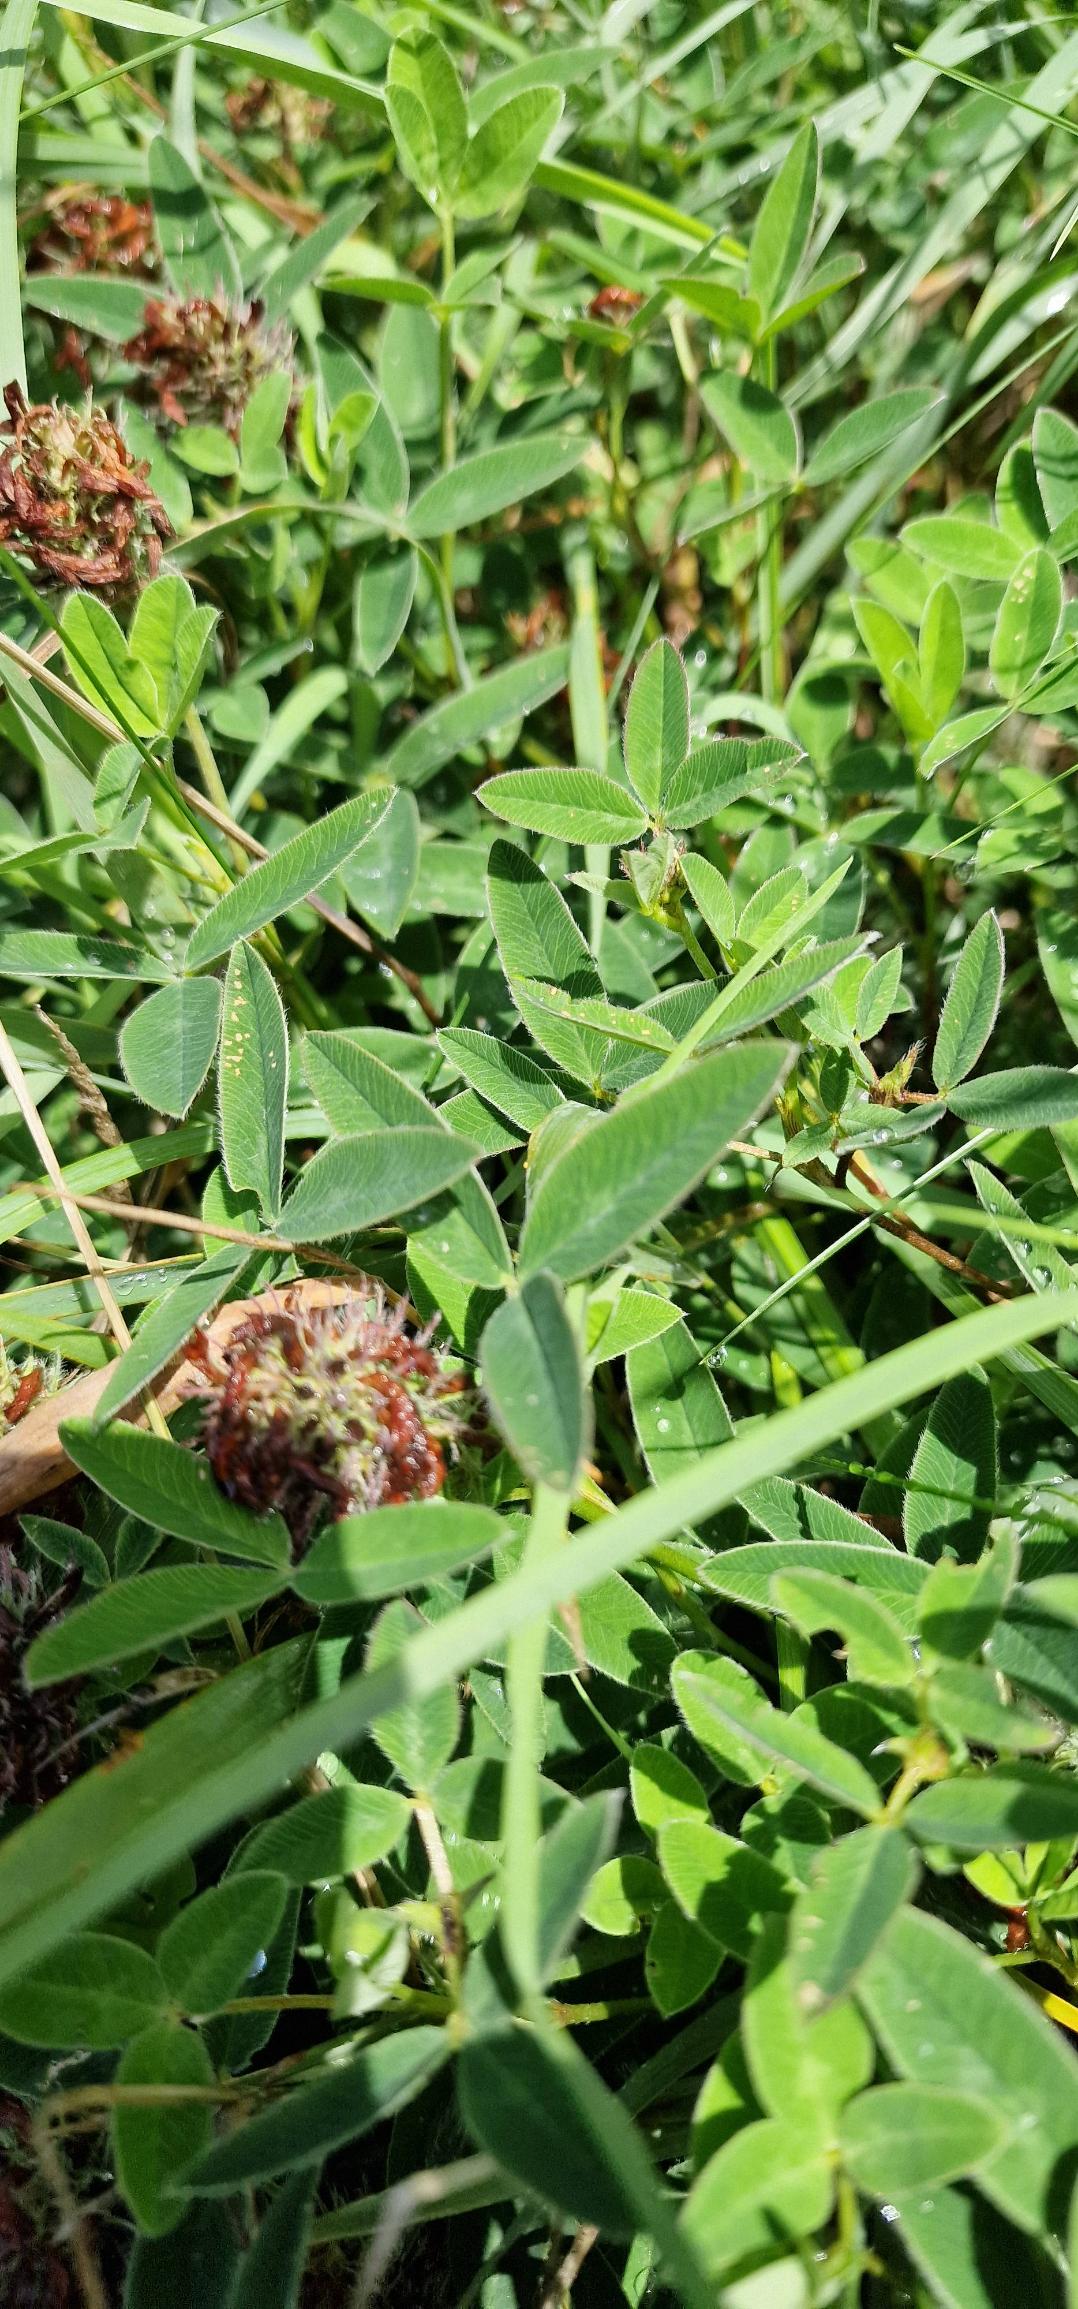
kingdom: Plantae
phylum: Tracheophyta
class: Magnoliopsida
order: Fabales
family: Fabaceae
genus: Trifolium
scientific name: Trifolium medium
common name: Bugtet kløver
